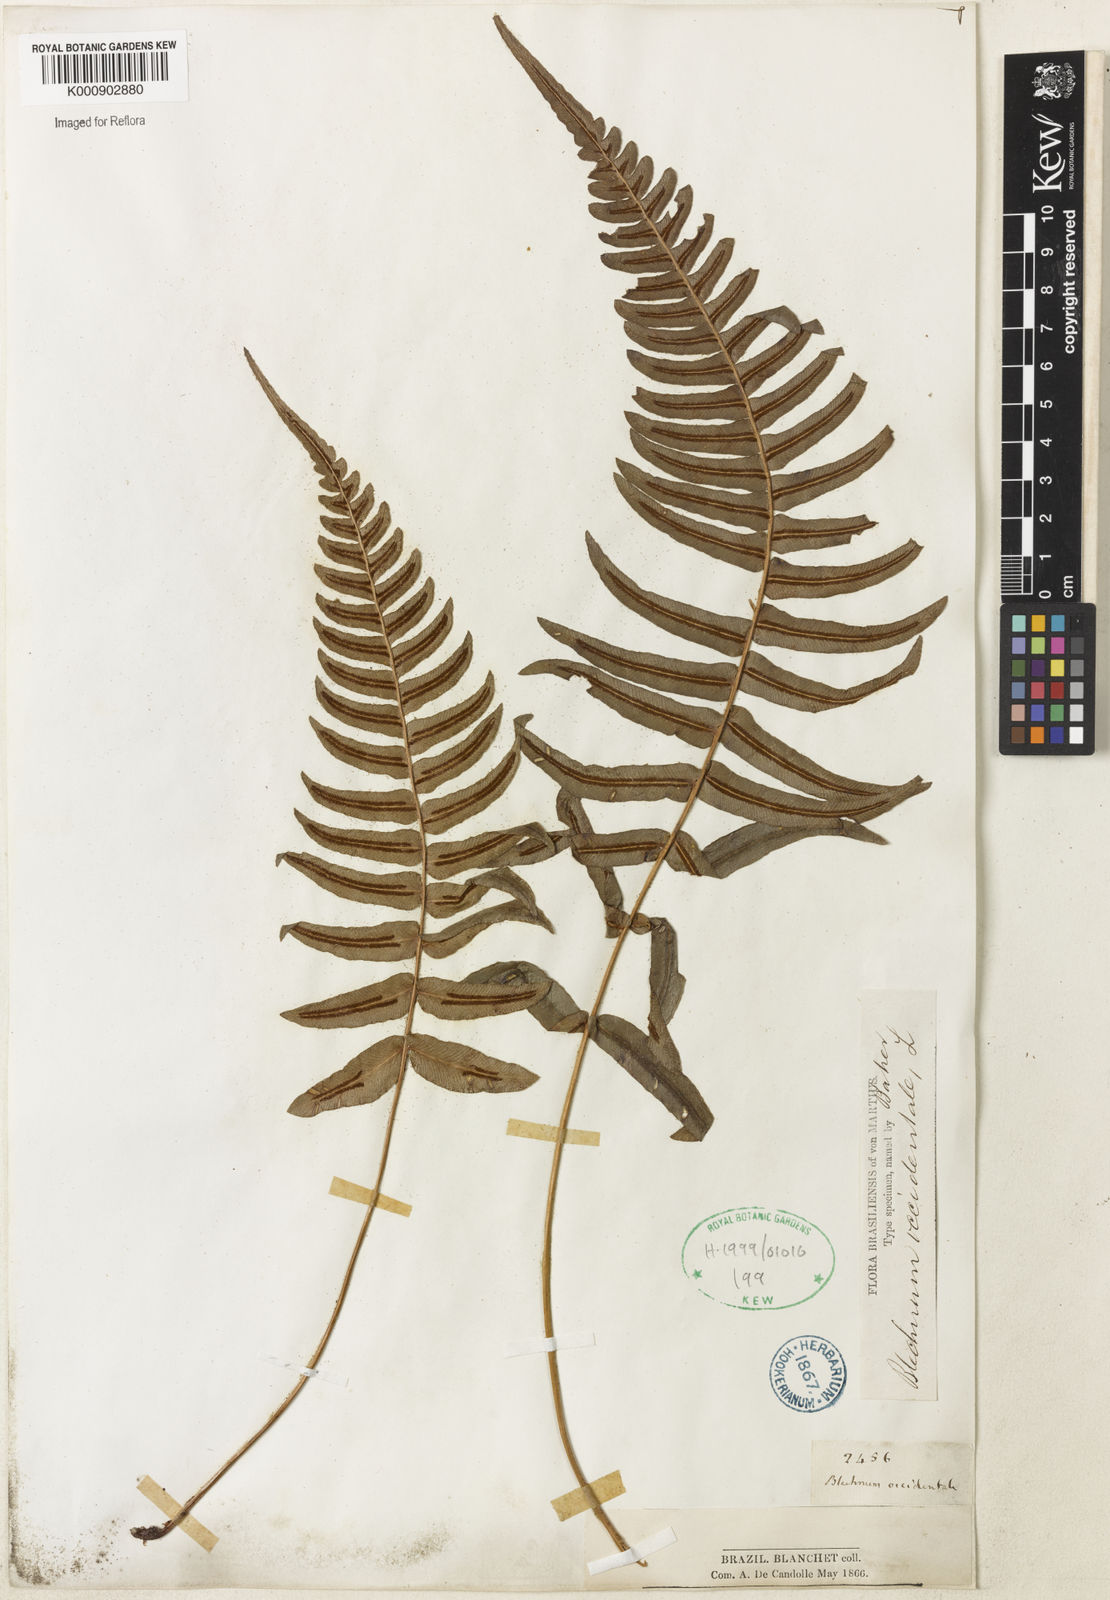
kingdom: Plantae
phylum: Tracheophyta
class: Polypodiopsida
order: Polypodiales
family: Blechnaceae
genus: Blechnum
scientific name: Blechnum occidentale
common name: Hammock fern
